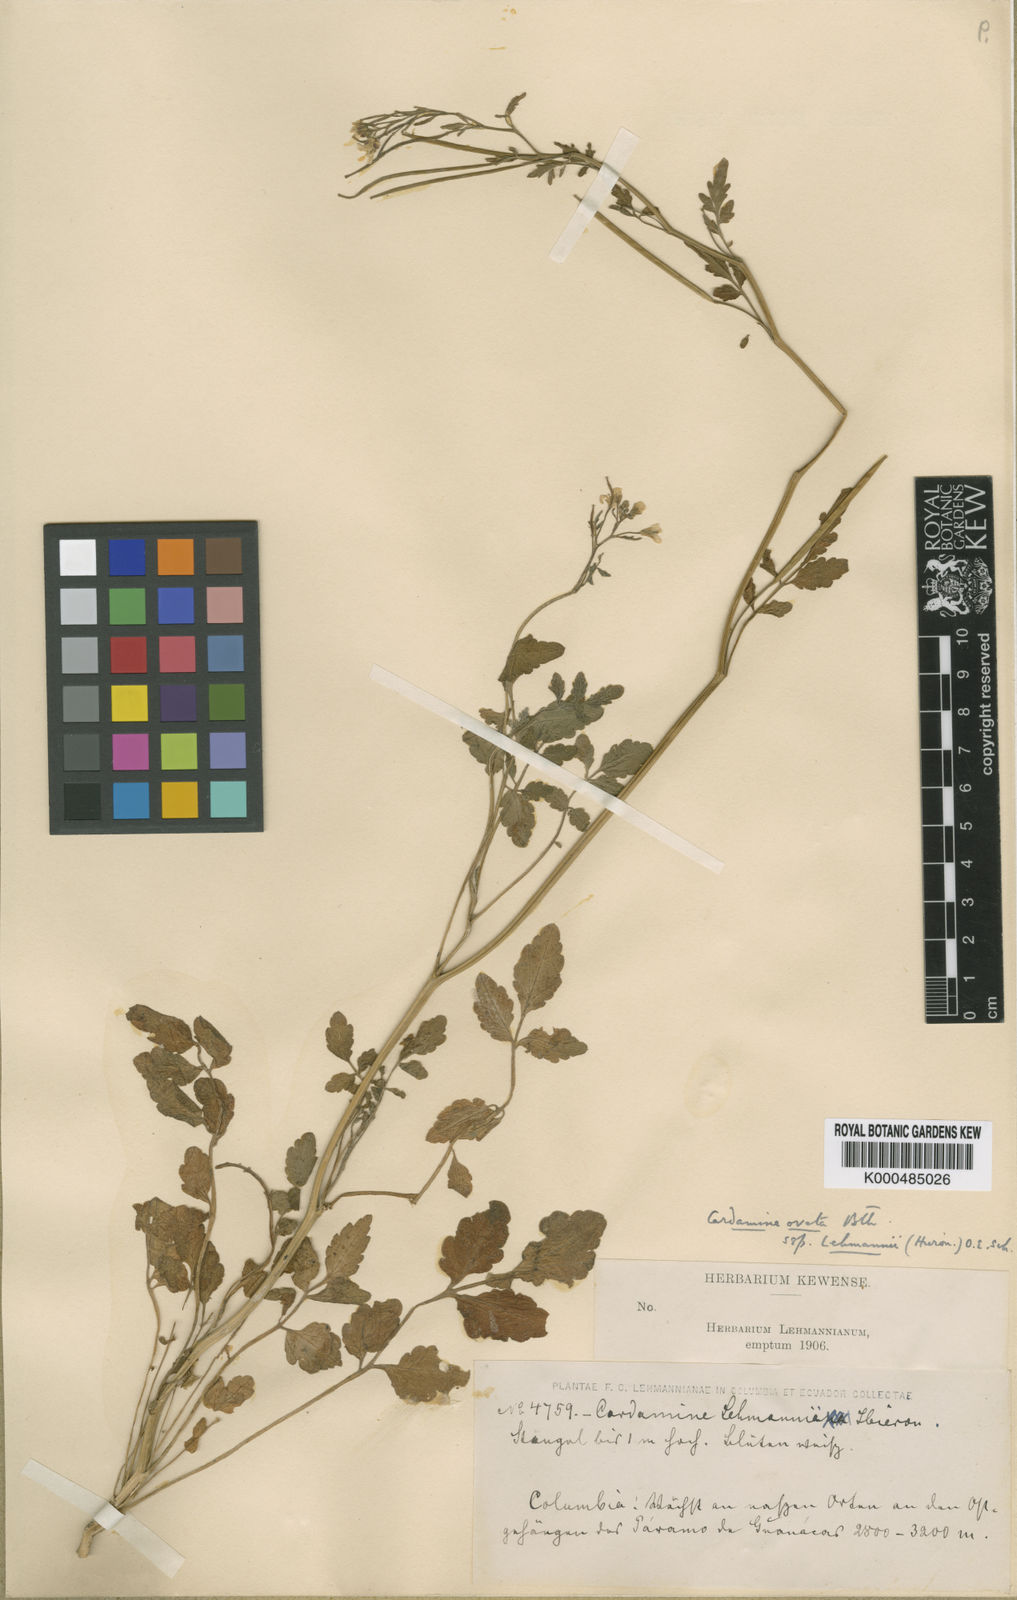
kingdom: Plantae
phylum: Tracheophyta
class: Magnoliopsida
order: Brassicales
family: Brassicaceae
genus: Cardamine
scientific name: Cardamine ovata
